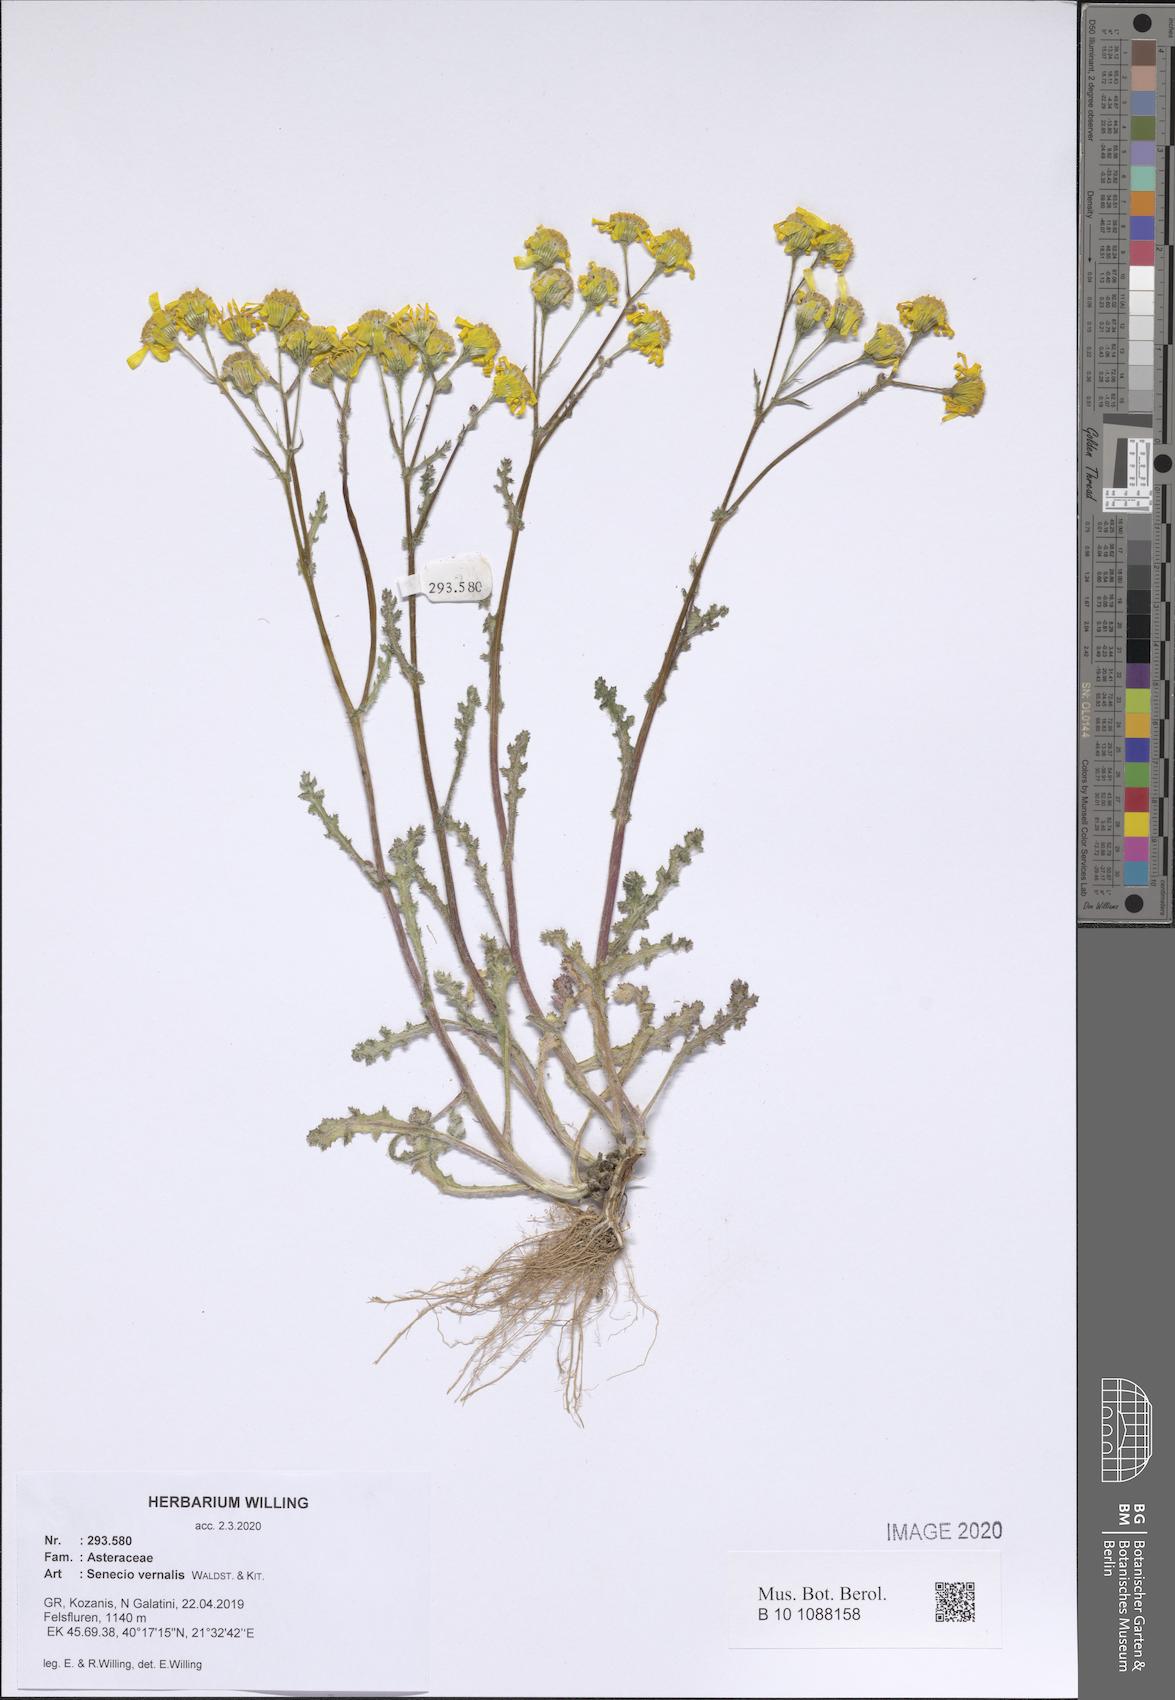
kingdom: Plantae
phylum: Tracheophyta
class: Magnoliopsida
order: Asterales
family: Asteraceae
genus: Senecio
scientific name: Senecio vernalis
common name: Eastern groundsel
